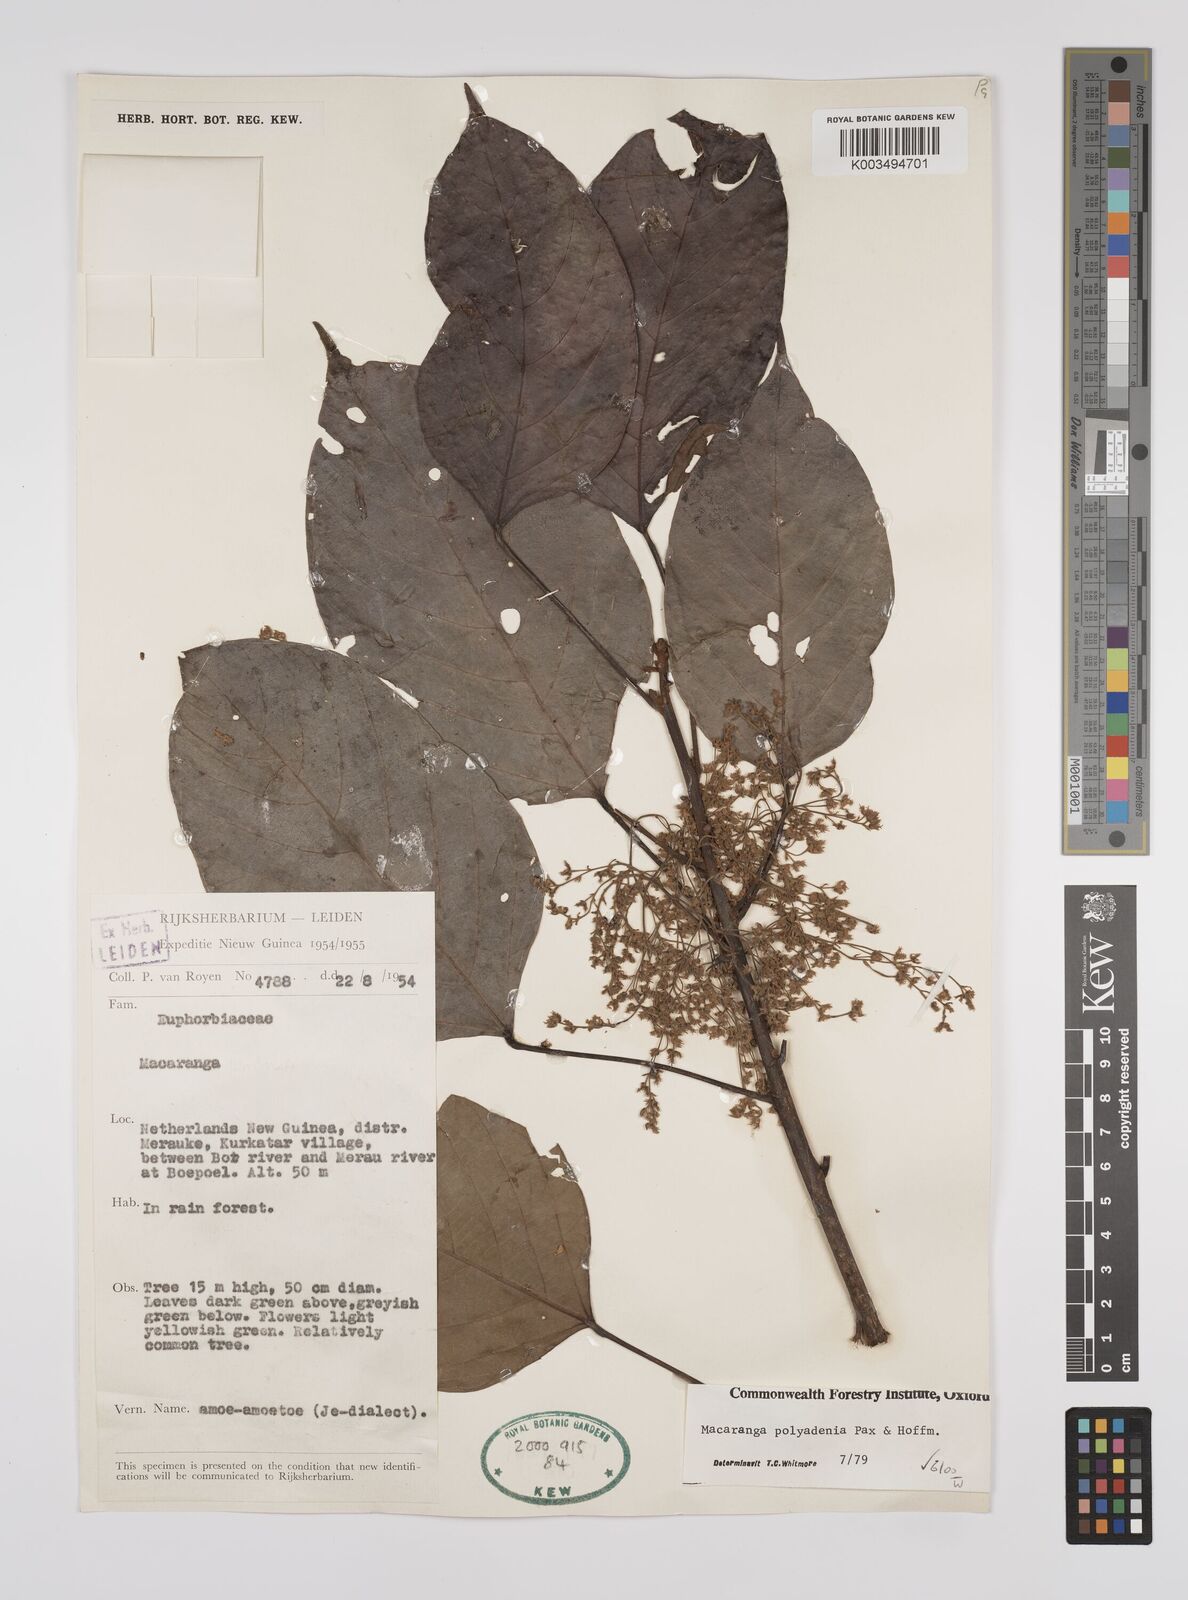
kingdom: Plantae
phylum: Tracheophyta
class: Magnoliopsida
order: Malpighiales
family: Euphorbiaceae
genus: Macaranga
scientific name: Macaranga polyadenia
